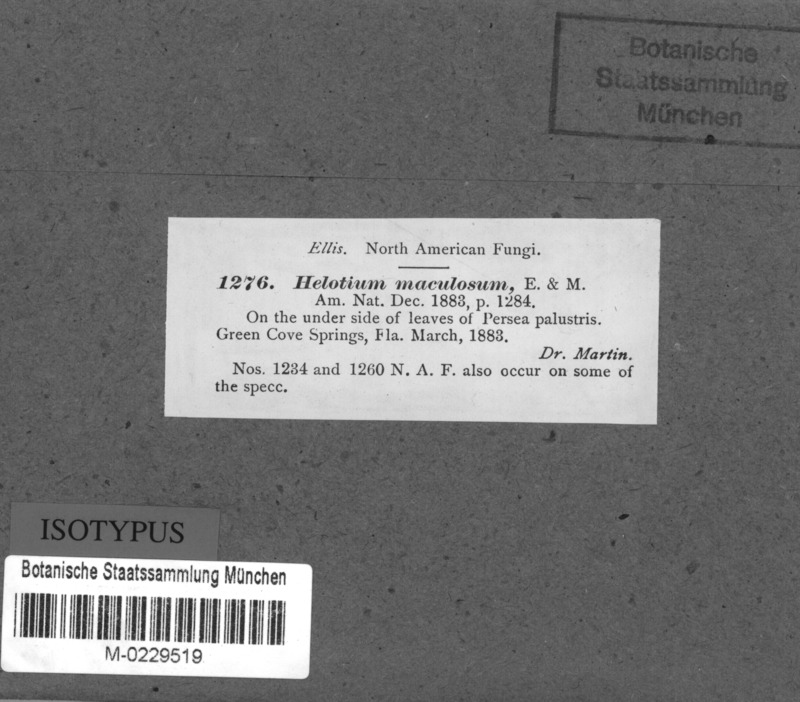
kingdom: Fungi
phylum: Ascomycota
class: Leotiomycetes
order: Helotiales
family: Lachnaceae
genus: Erinellina
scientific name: Erinellina maculosa
